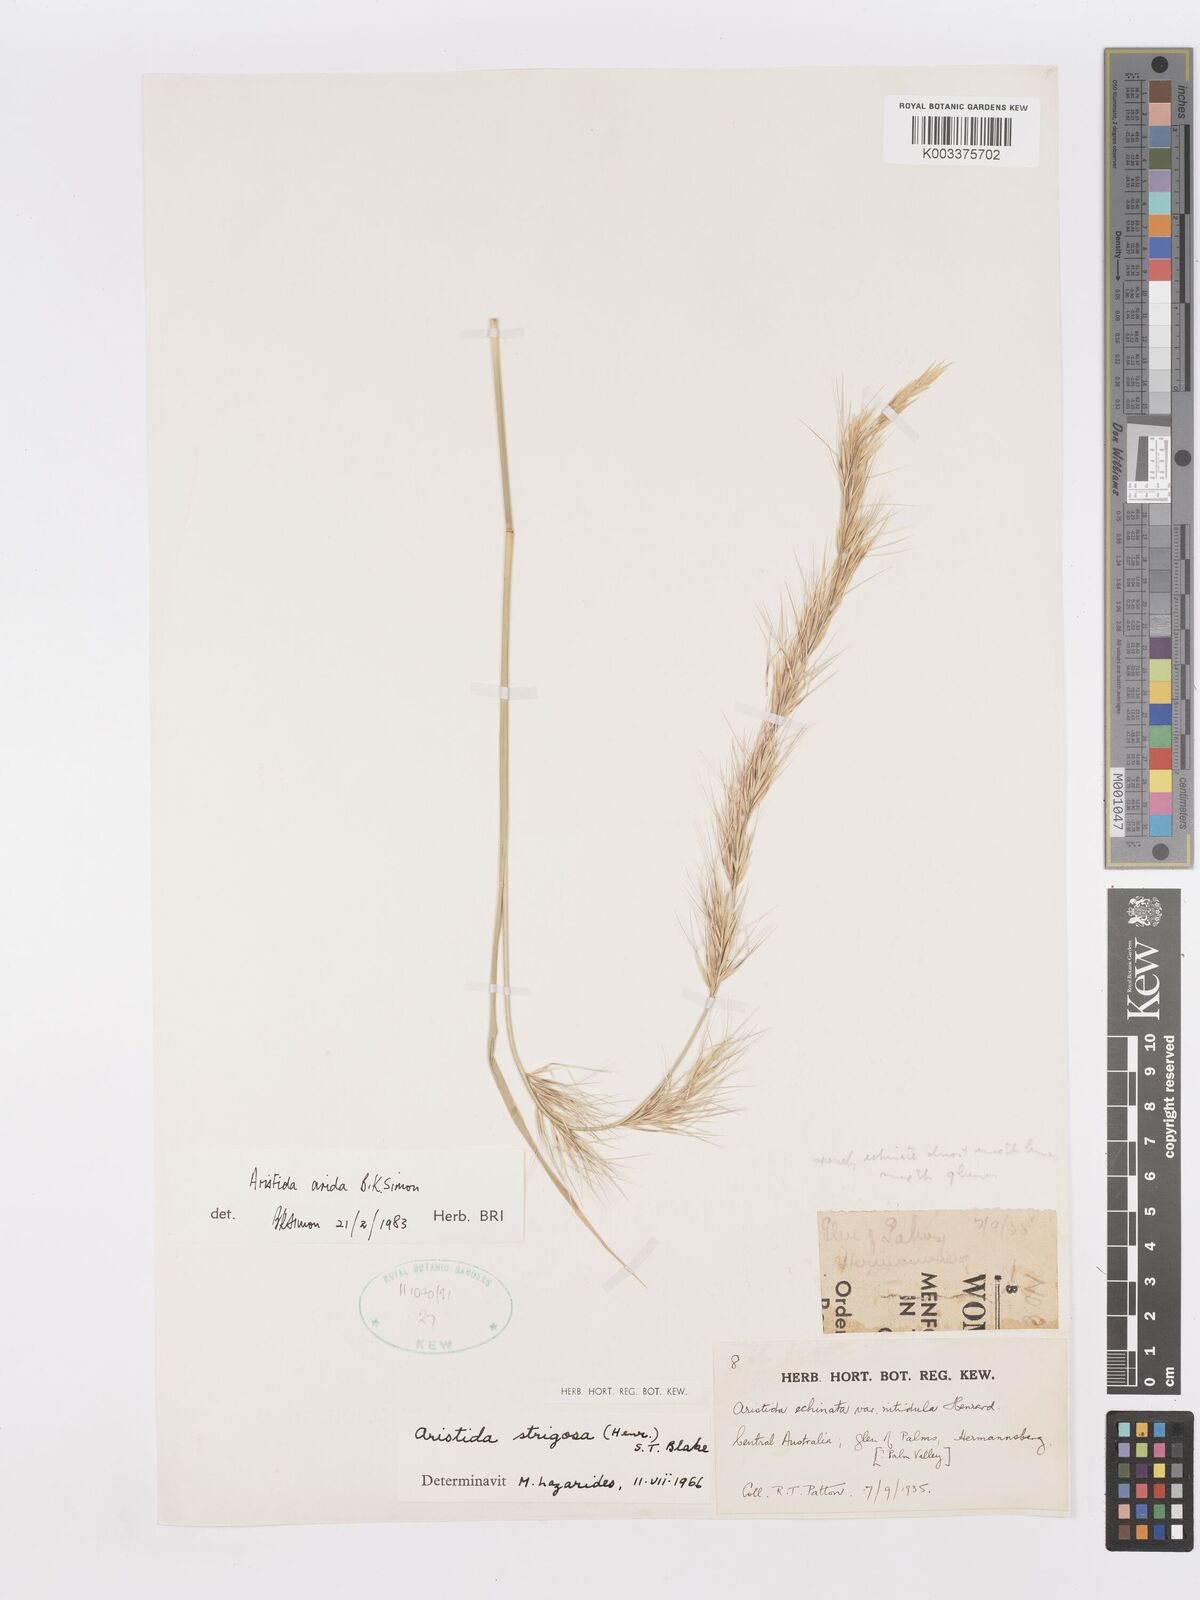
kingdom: Plantae
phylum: Tracheophyta
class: Liliopsida
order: Poales
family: Poaceae
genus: Aristida
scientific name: Aristida strigosa
